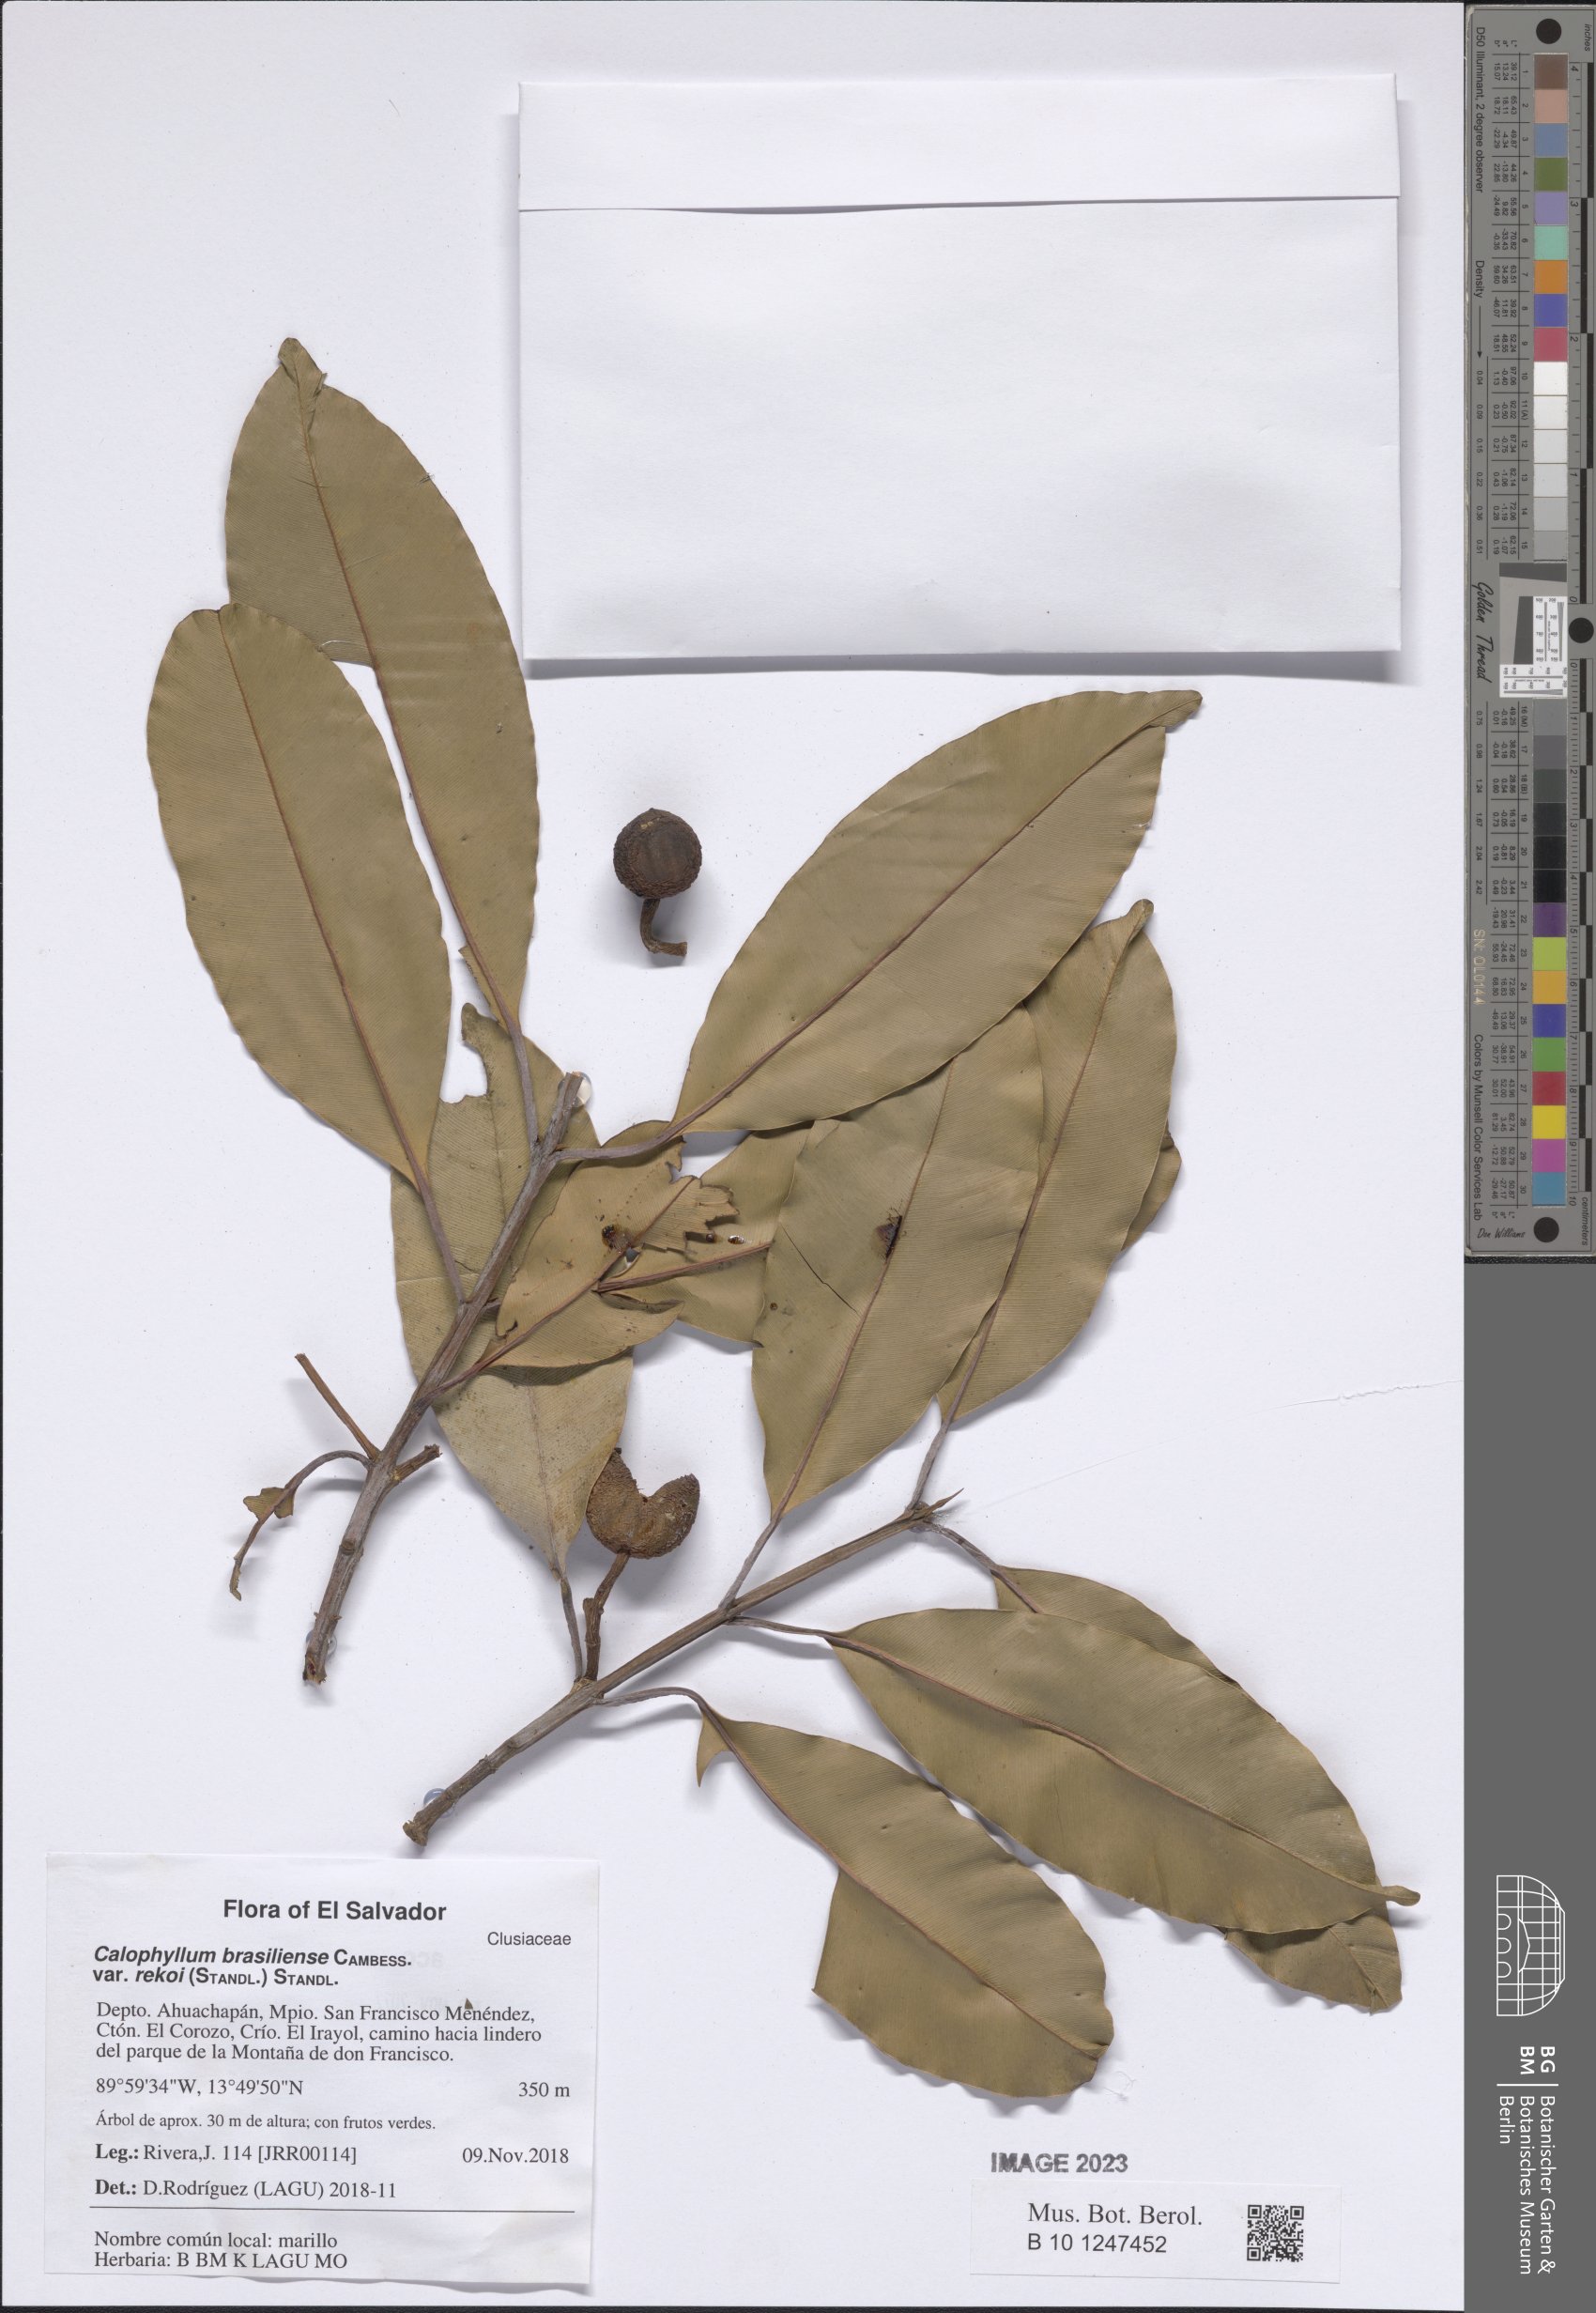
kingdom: Plantae
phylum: Tracheophyta
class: Magnoliopsida
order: Malpighiales
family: Calophyllaceae
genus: Calophyllum
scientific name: Calophyllum brasiliense
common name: Santa maria
